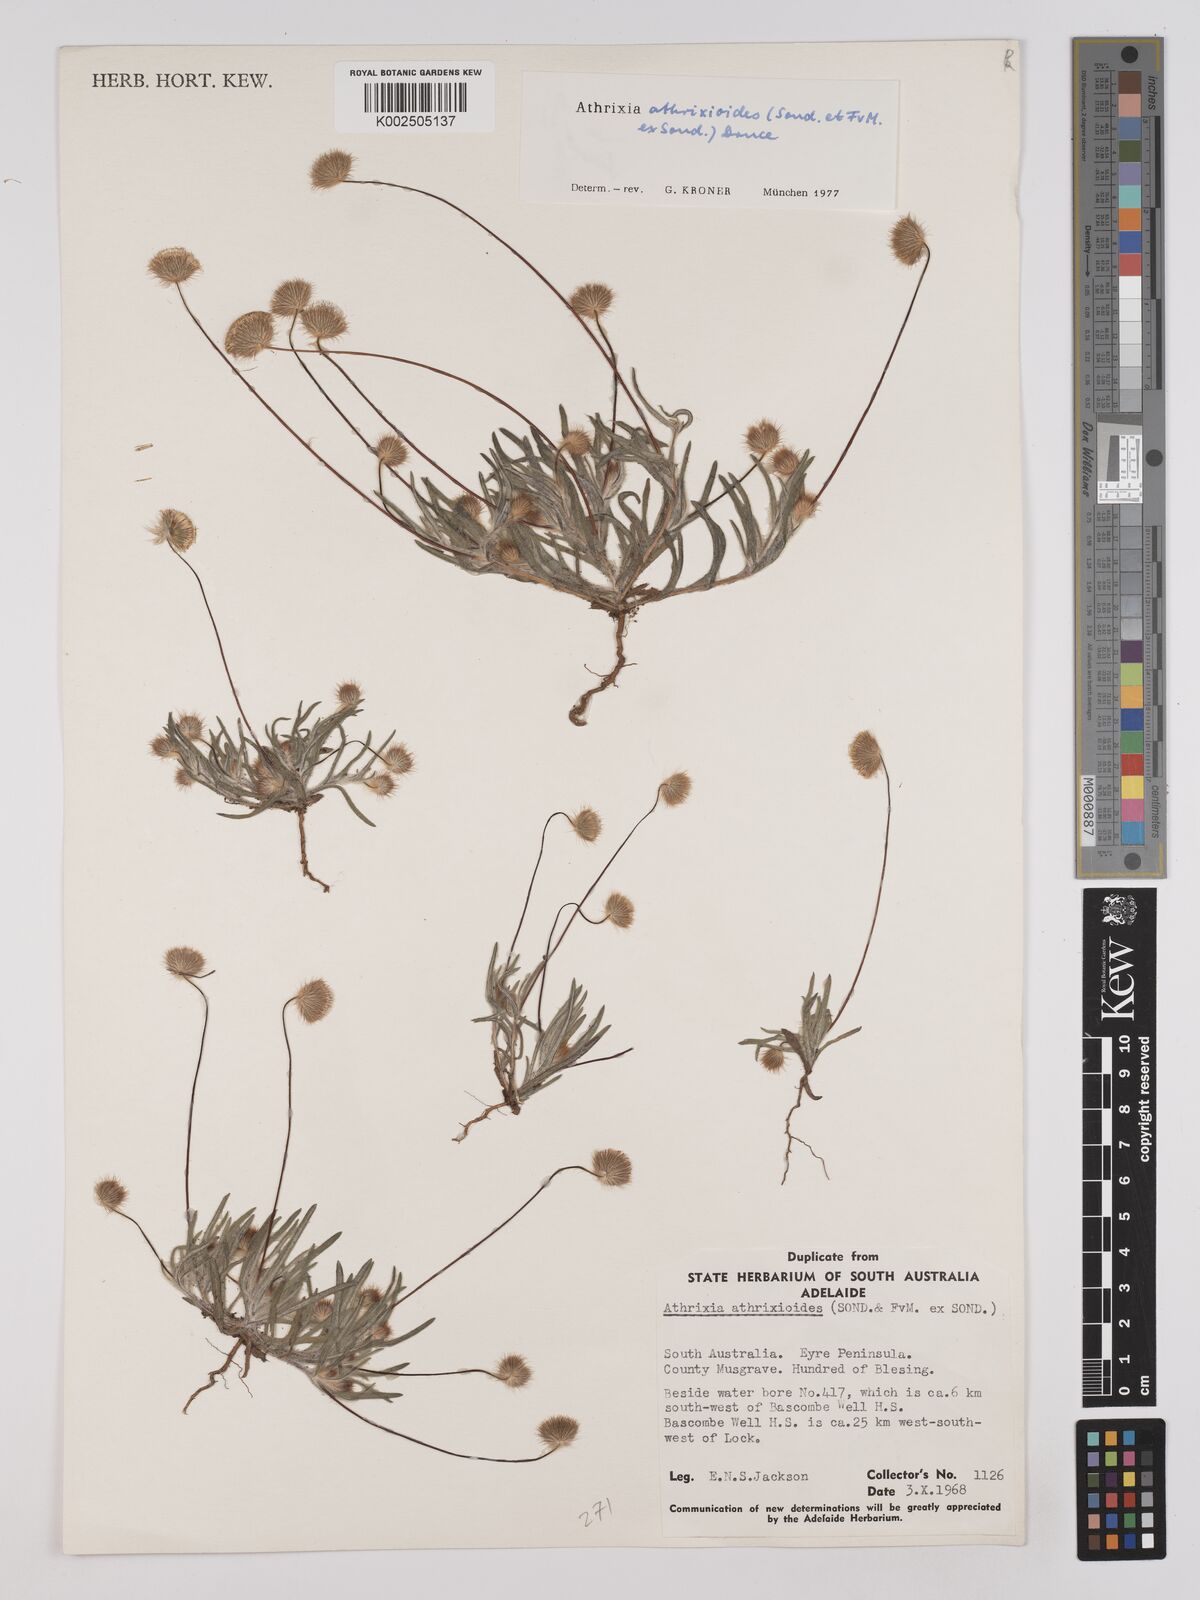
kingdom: Plantae
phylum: Tracheophyta
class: Magnoliopsida
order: Asterales
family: Asteraceae
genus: Asteridea
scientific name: Asteridea athrixioides
